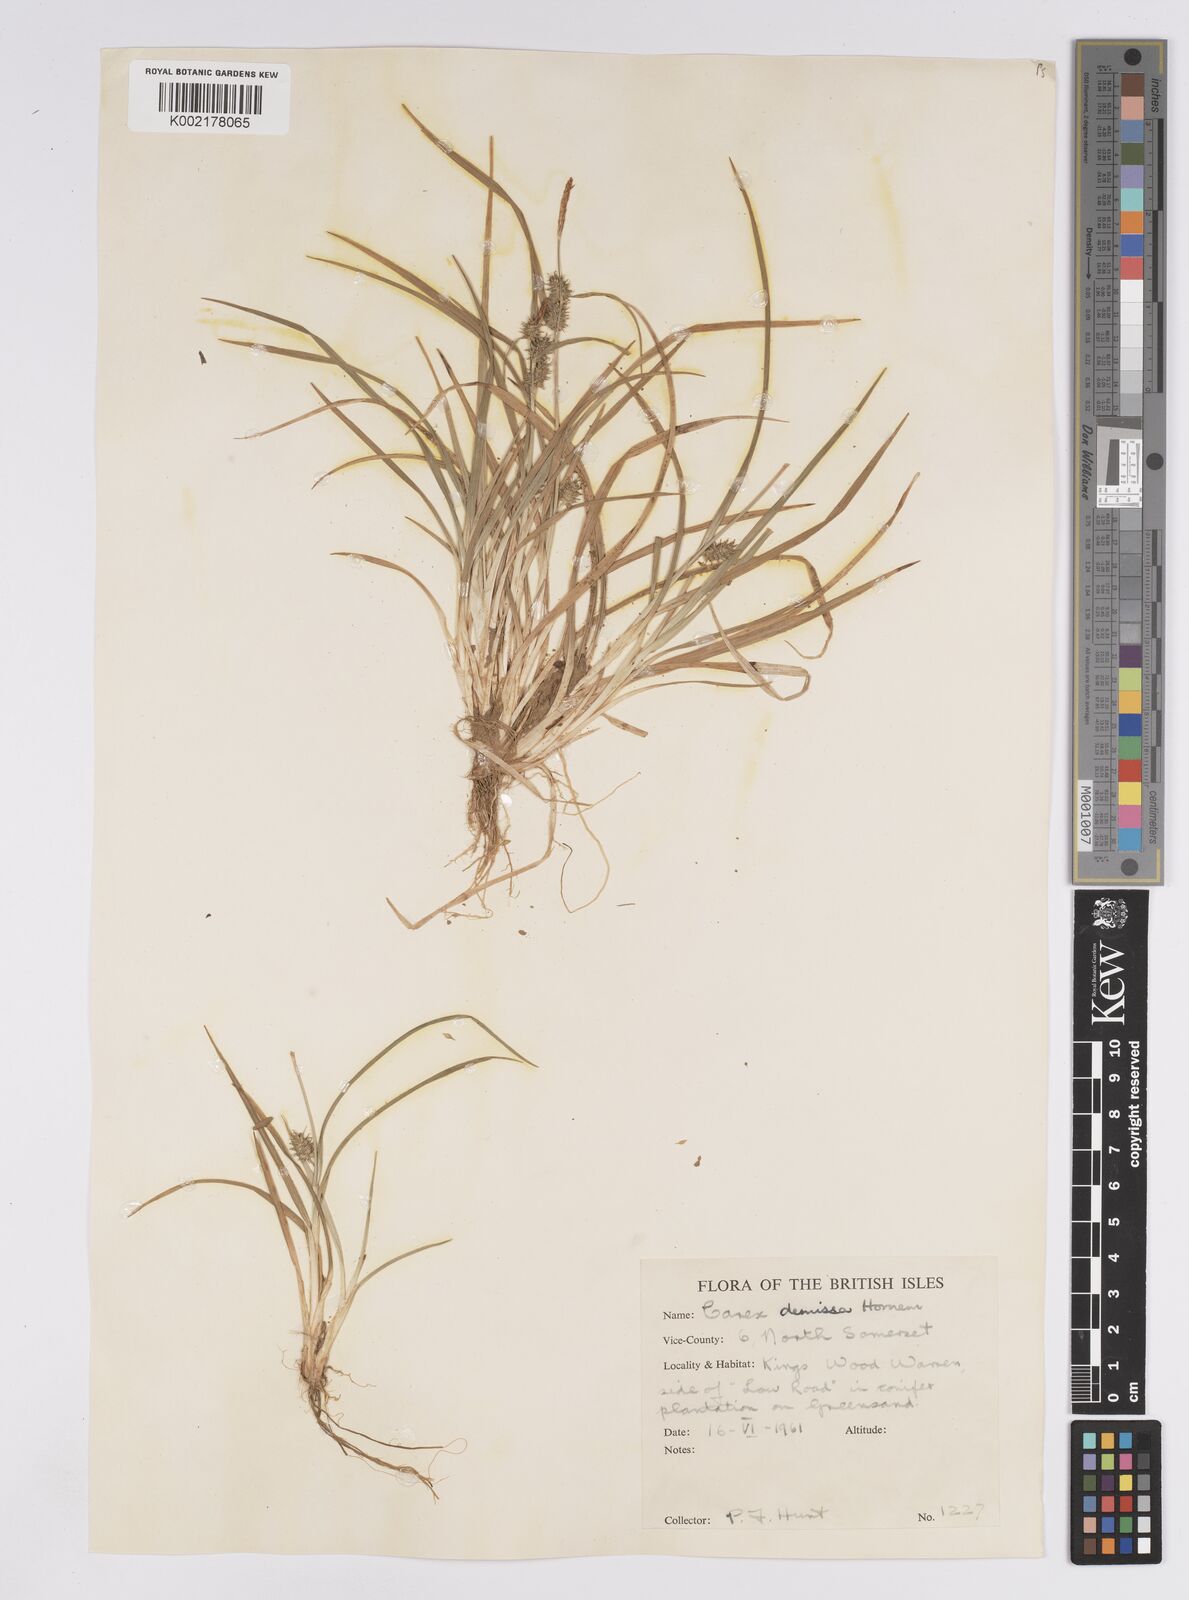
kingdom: Plantae
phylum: Tracheophyta
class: Liliopsida
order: Poales
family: Cyperaceae
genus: Carex
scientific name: Carex demissa
